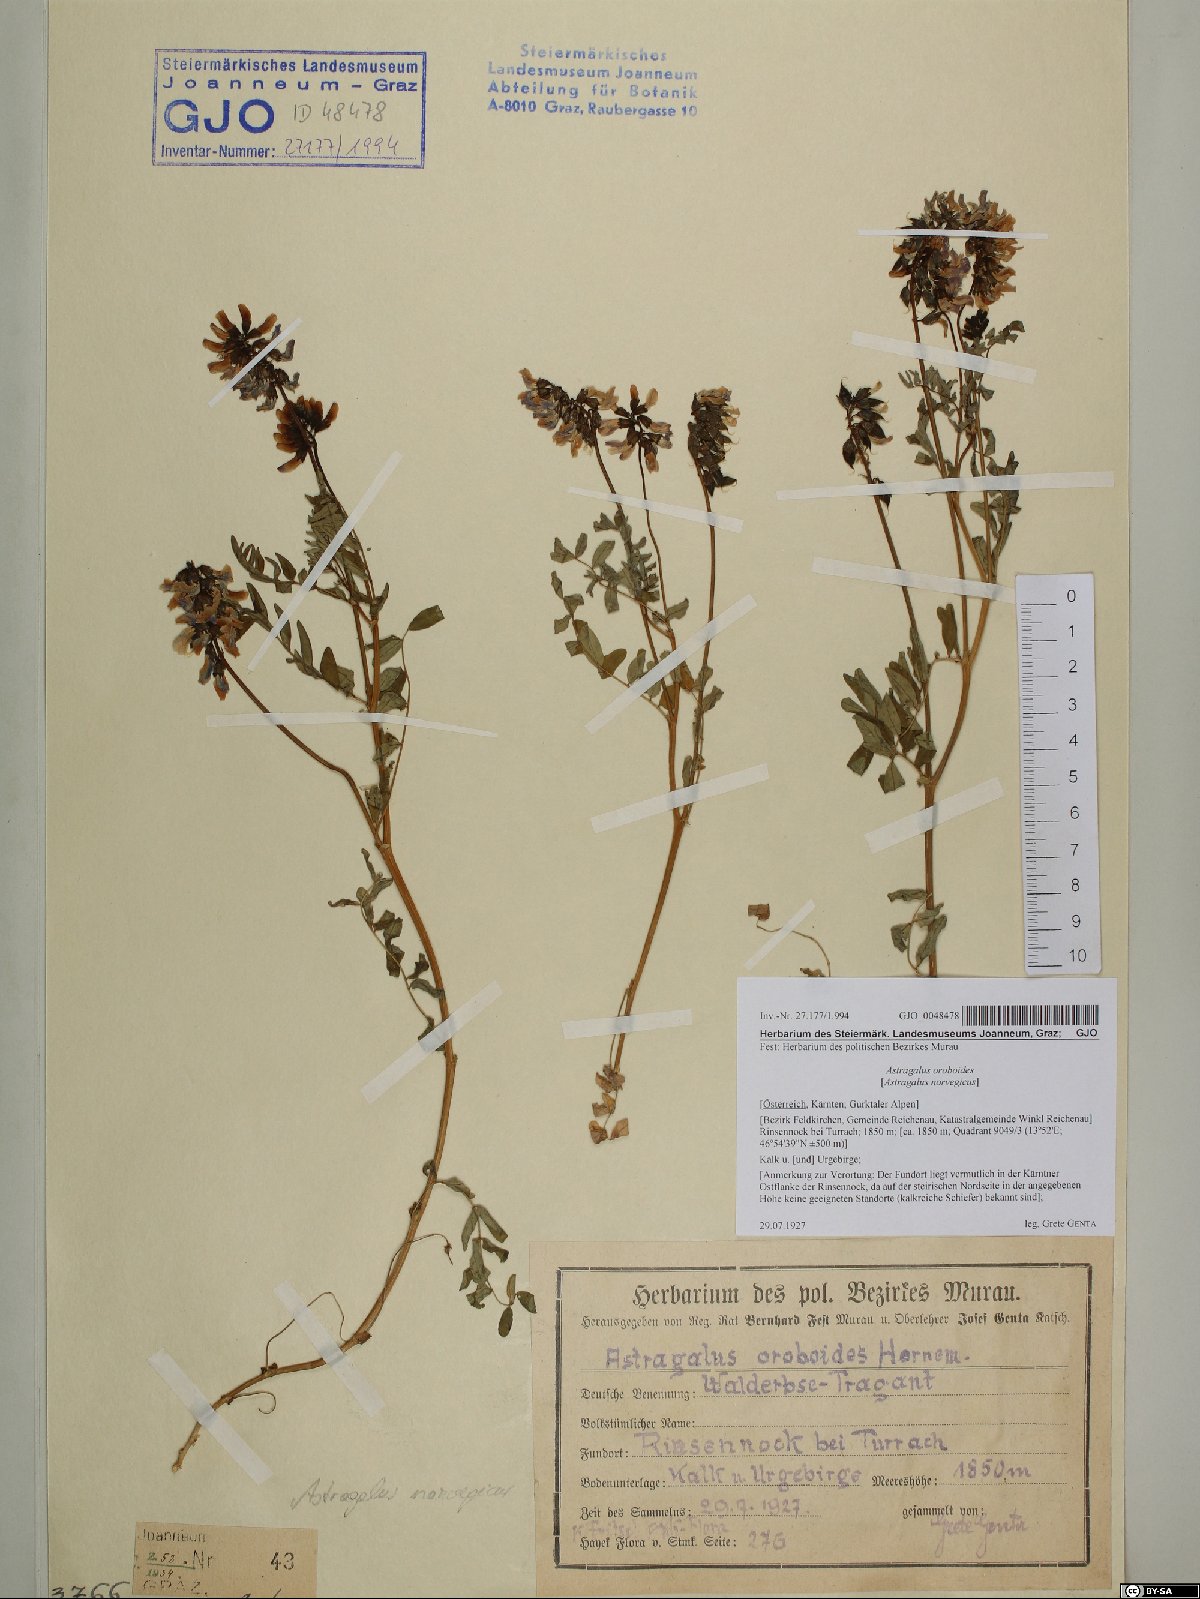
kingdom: Plantae
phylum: Tracheophyta
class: Magnoliopsida
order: Fabales
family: Fabaceae
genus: Astragalus
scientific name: Astragalus norvegicus
